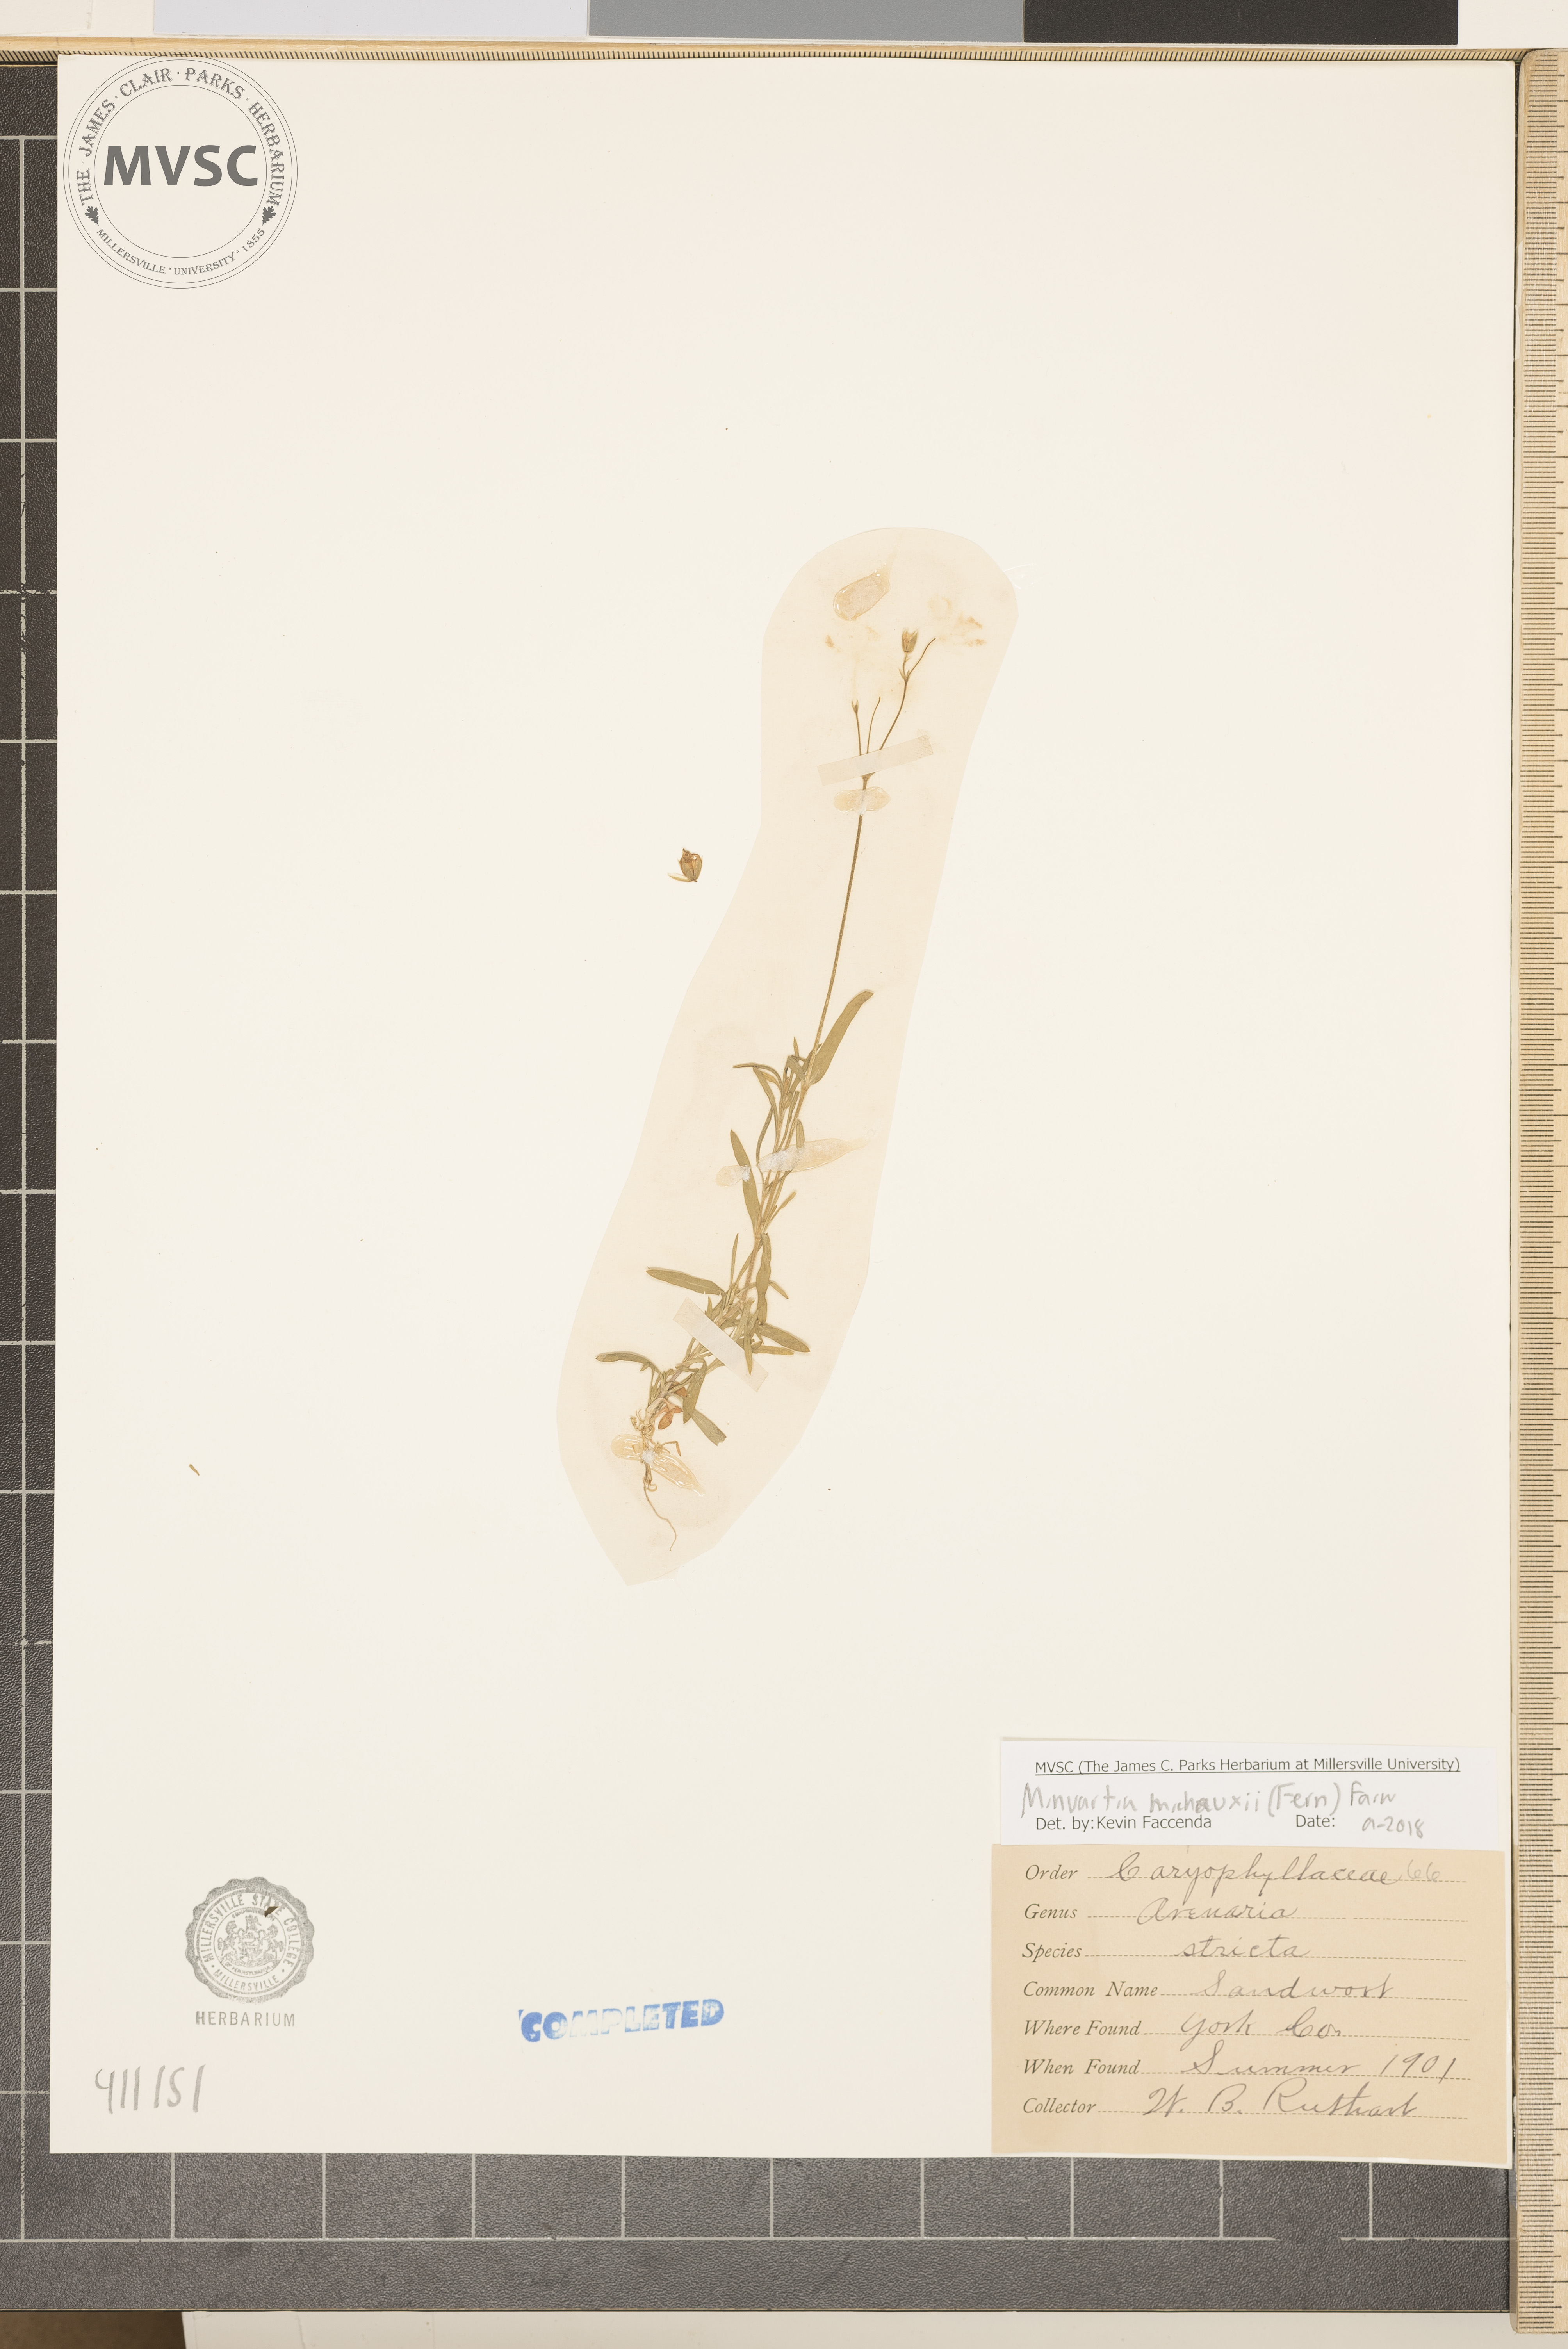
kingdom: Plantae
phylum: Tracheophyta
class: Magnoliopsida
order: Caryophyllales
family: Caryophyllaceae
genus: Sabulina
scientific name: Sabulina michauxii
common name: Michaux's stitchwort
